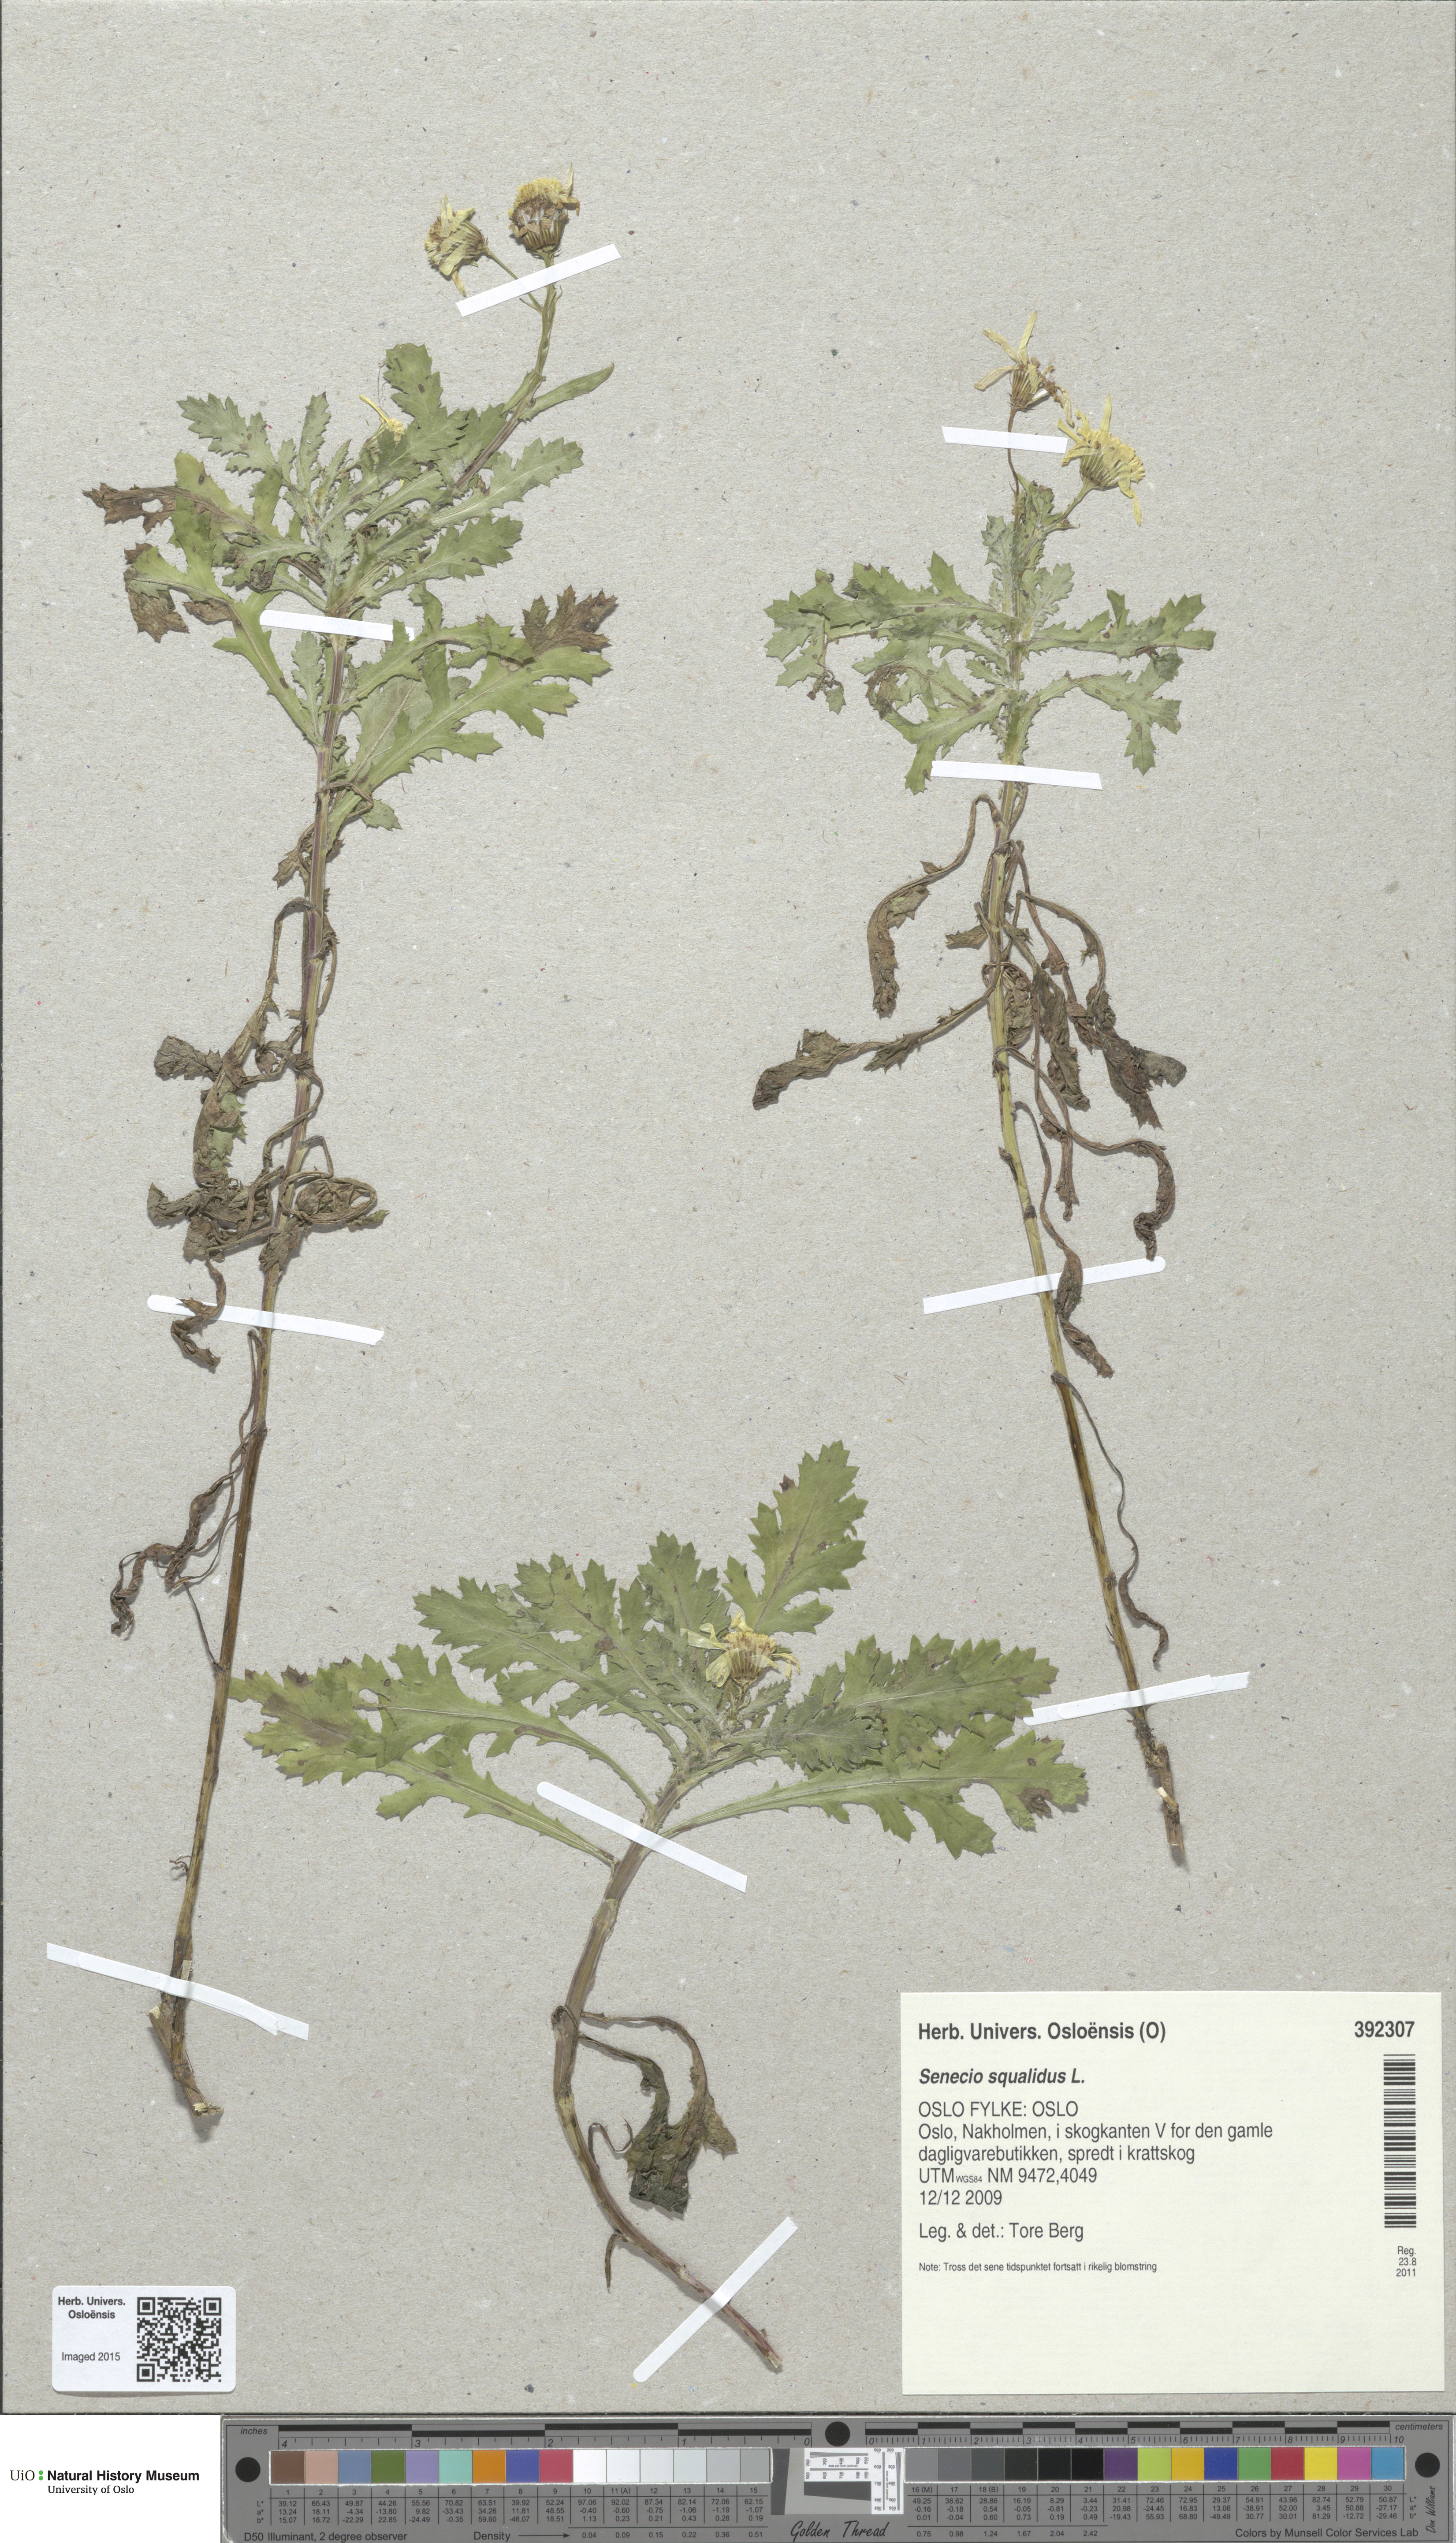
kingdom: Plantae
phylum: Tracheophyta
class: Magnoliopsida
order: Asterales
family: Asteraceae
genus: Senecio
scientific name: Senecio squalidus
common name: Oxford ragwort
